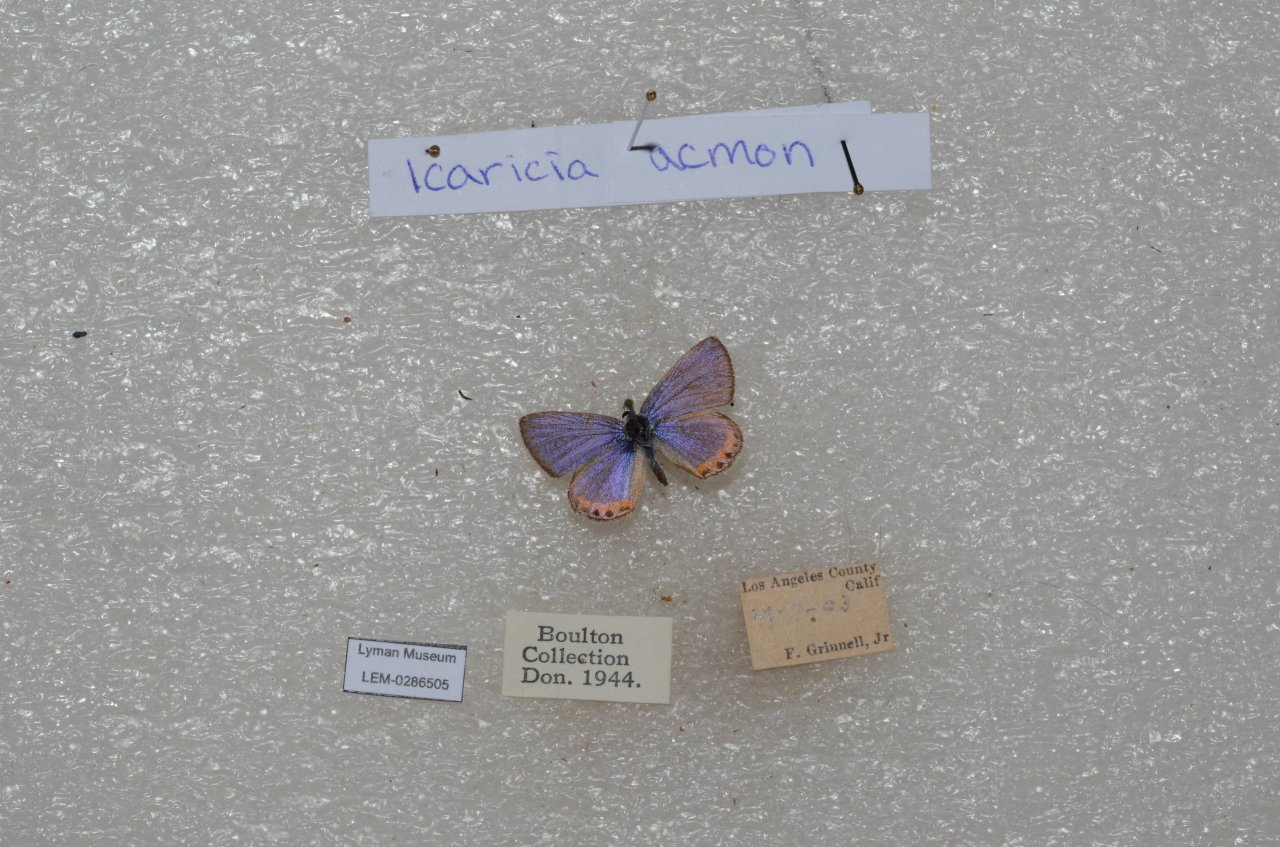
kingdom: Animalia
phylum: Arthropoda
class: Insecta
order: Lepidoptera
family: Lycaenidae
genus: Plebejus
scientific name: Plebejus
